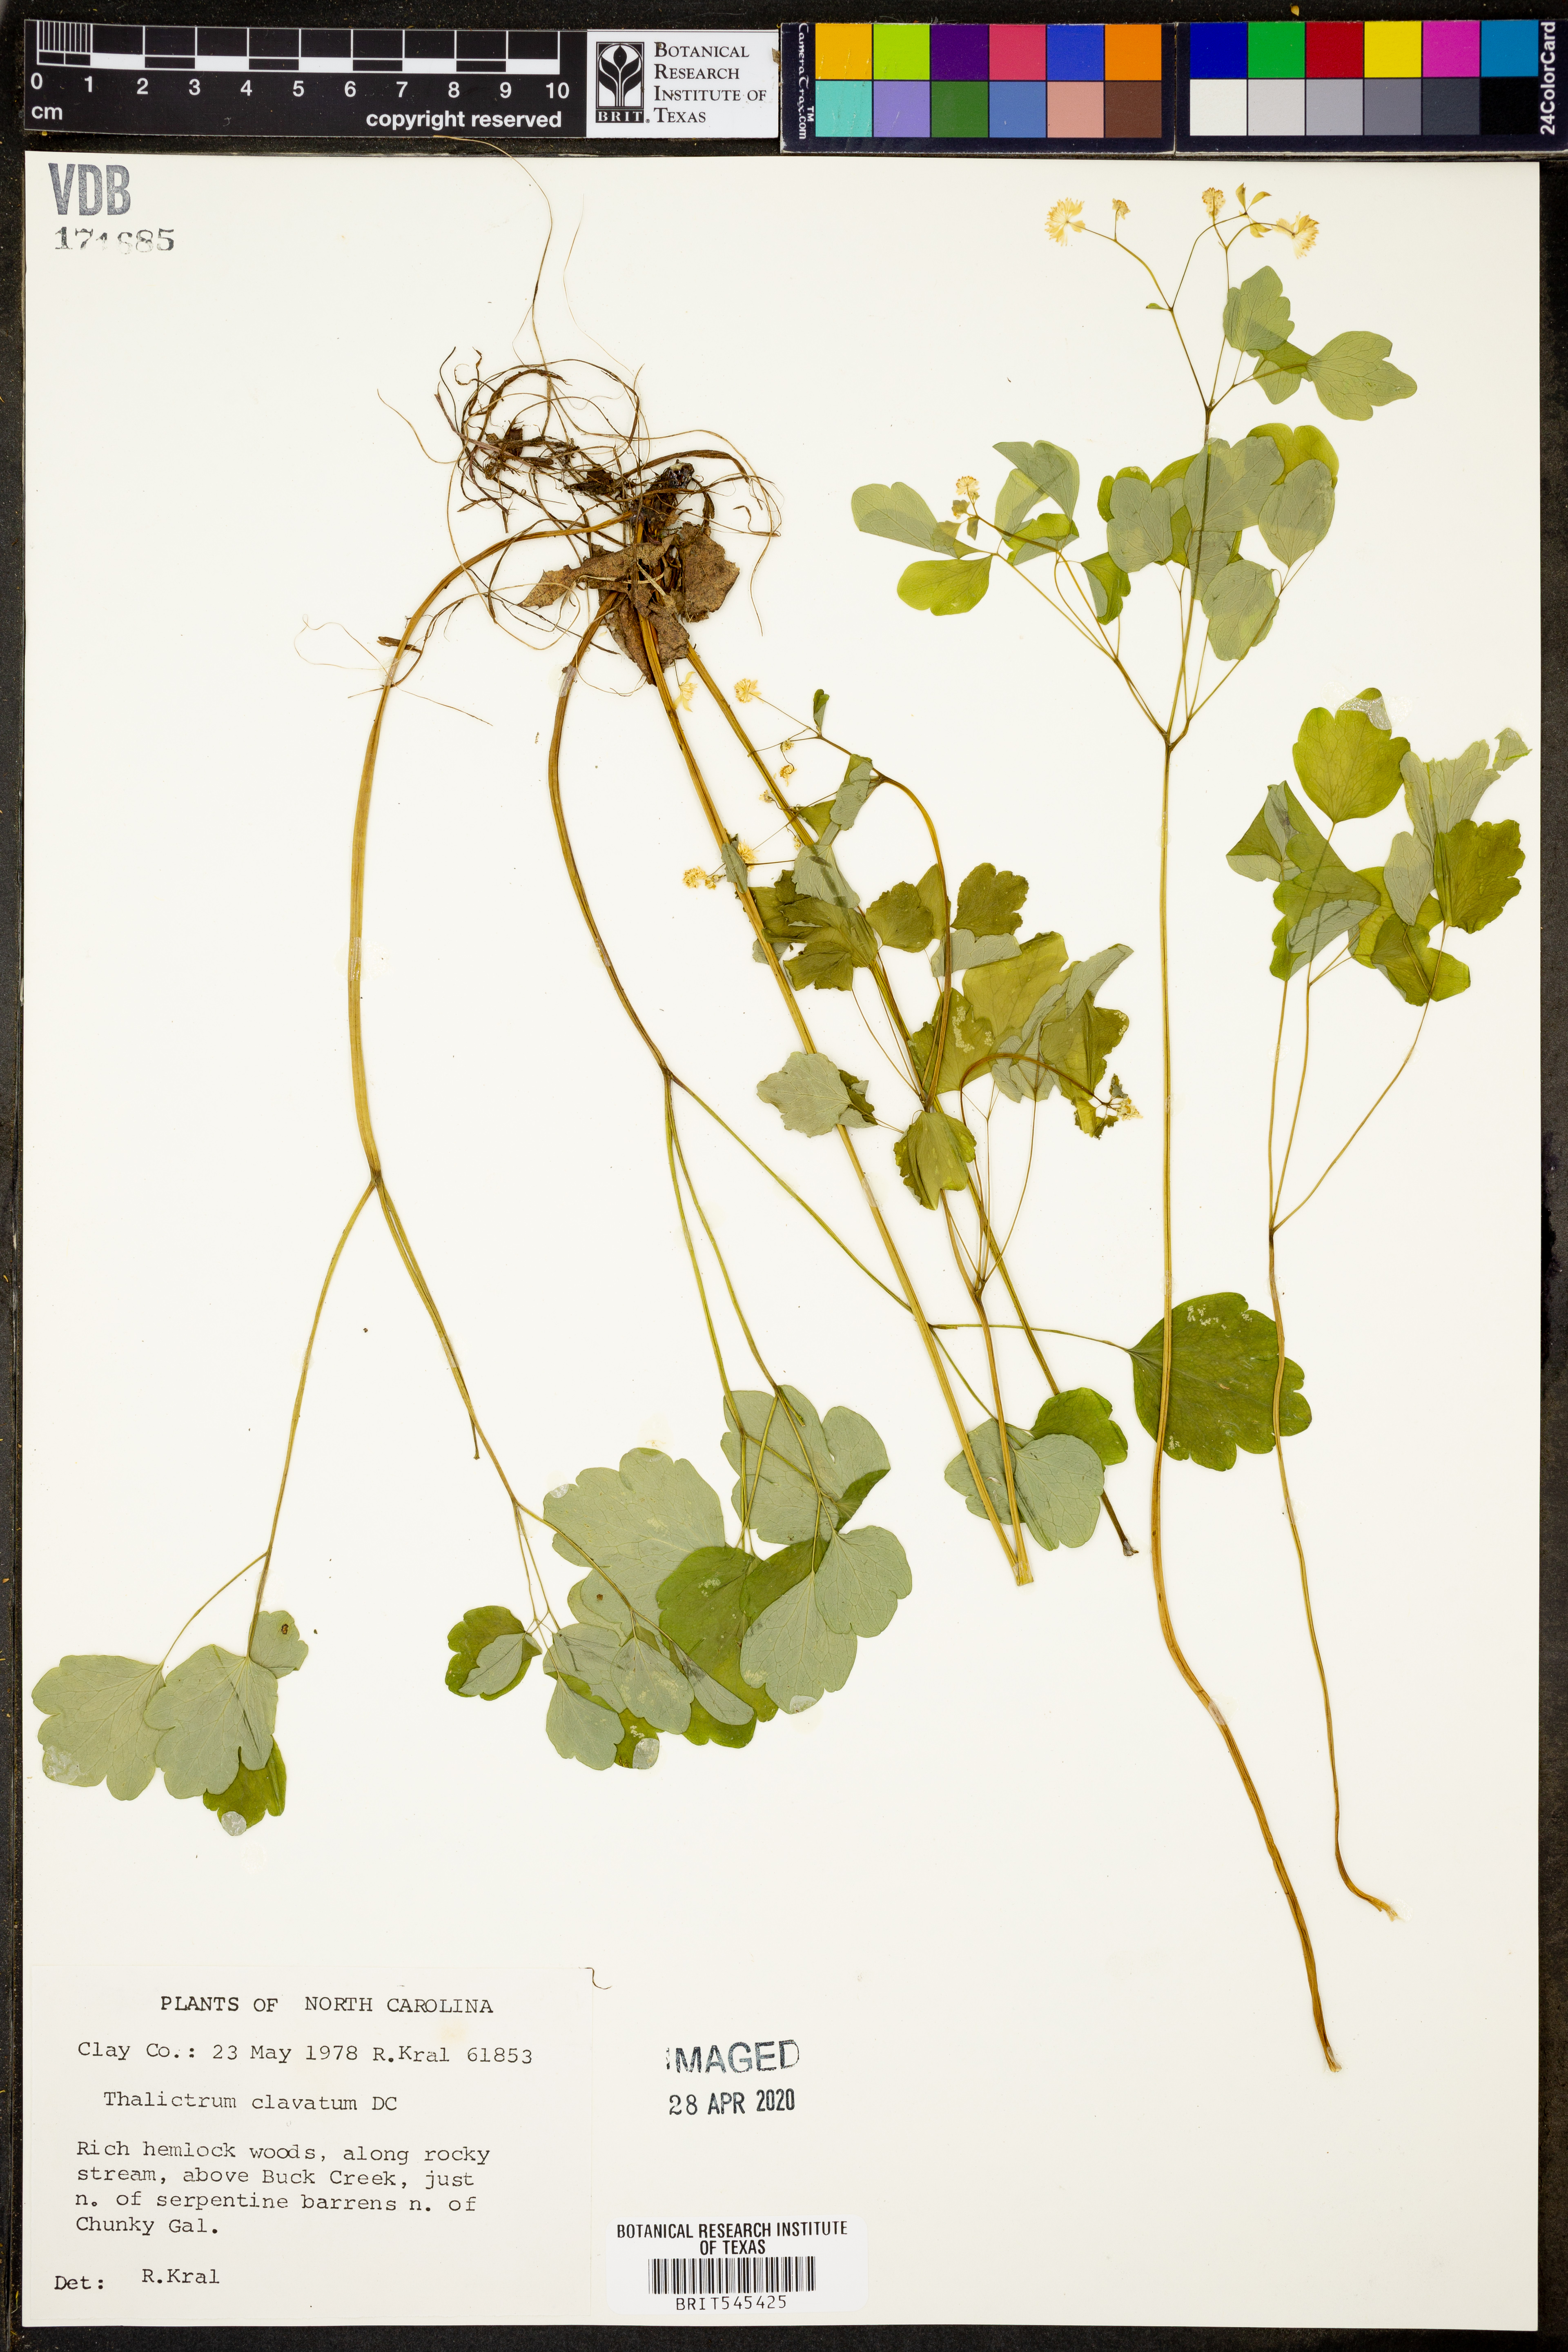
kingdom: Plantae
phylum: Tracheophyta
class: Magnoliopsida
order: Ranunculales
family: Ranunculaceae
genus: Thalictrum
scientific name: Thalictrum clavatum
